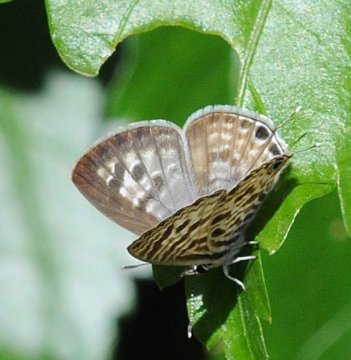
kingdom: Animalia
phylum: Arthropoda
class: Insecta
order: Lepidoptera
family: Lycaenidae
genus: Leptotes
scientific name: Leptotes pirithous
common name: Lang's Short-tailed Blue
